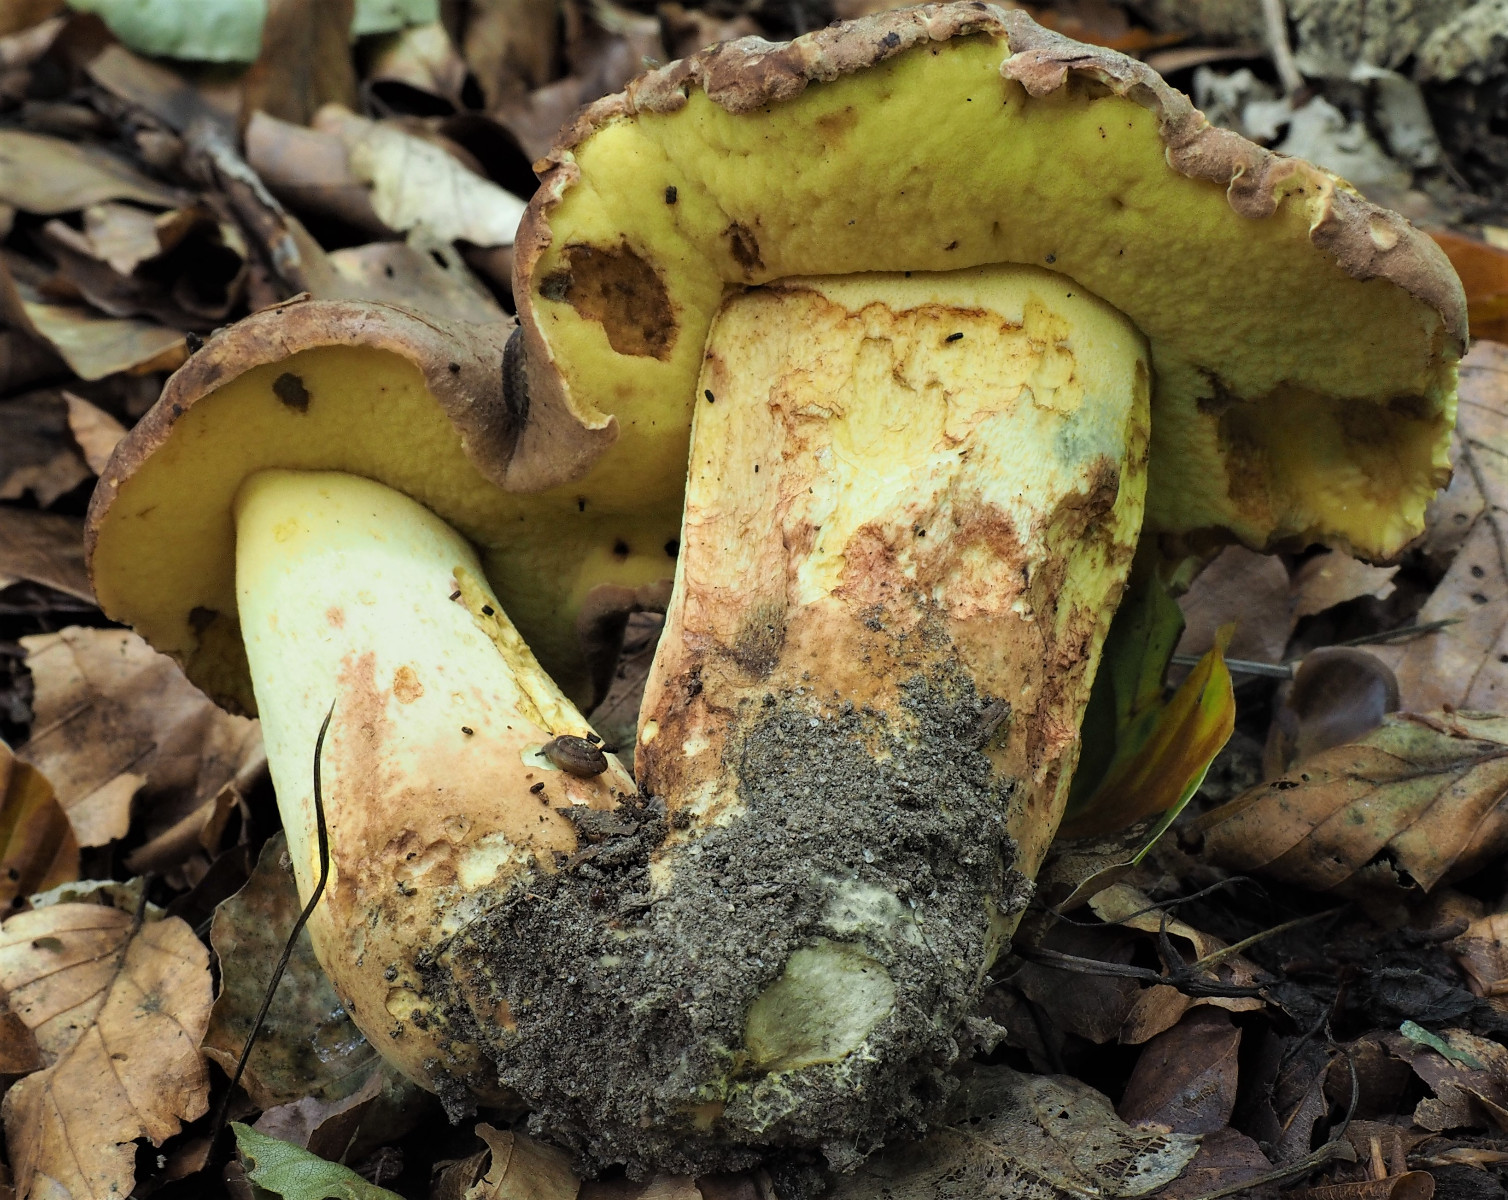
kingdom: Fungi
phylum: Basidiomycota
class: Agaricomycetes
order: Boletales
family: Boletaceae
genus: Butyriboletus
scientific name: Butyriboletus appendiculatus
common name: tenstokket rørhat
